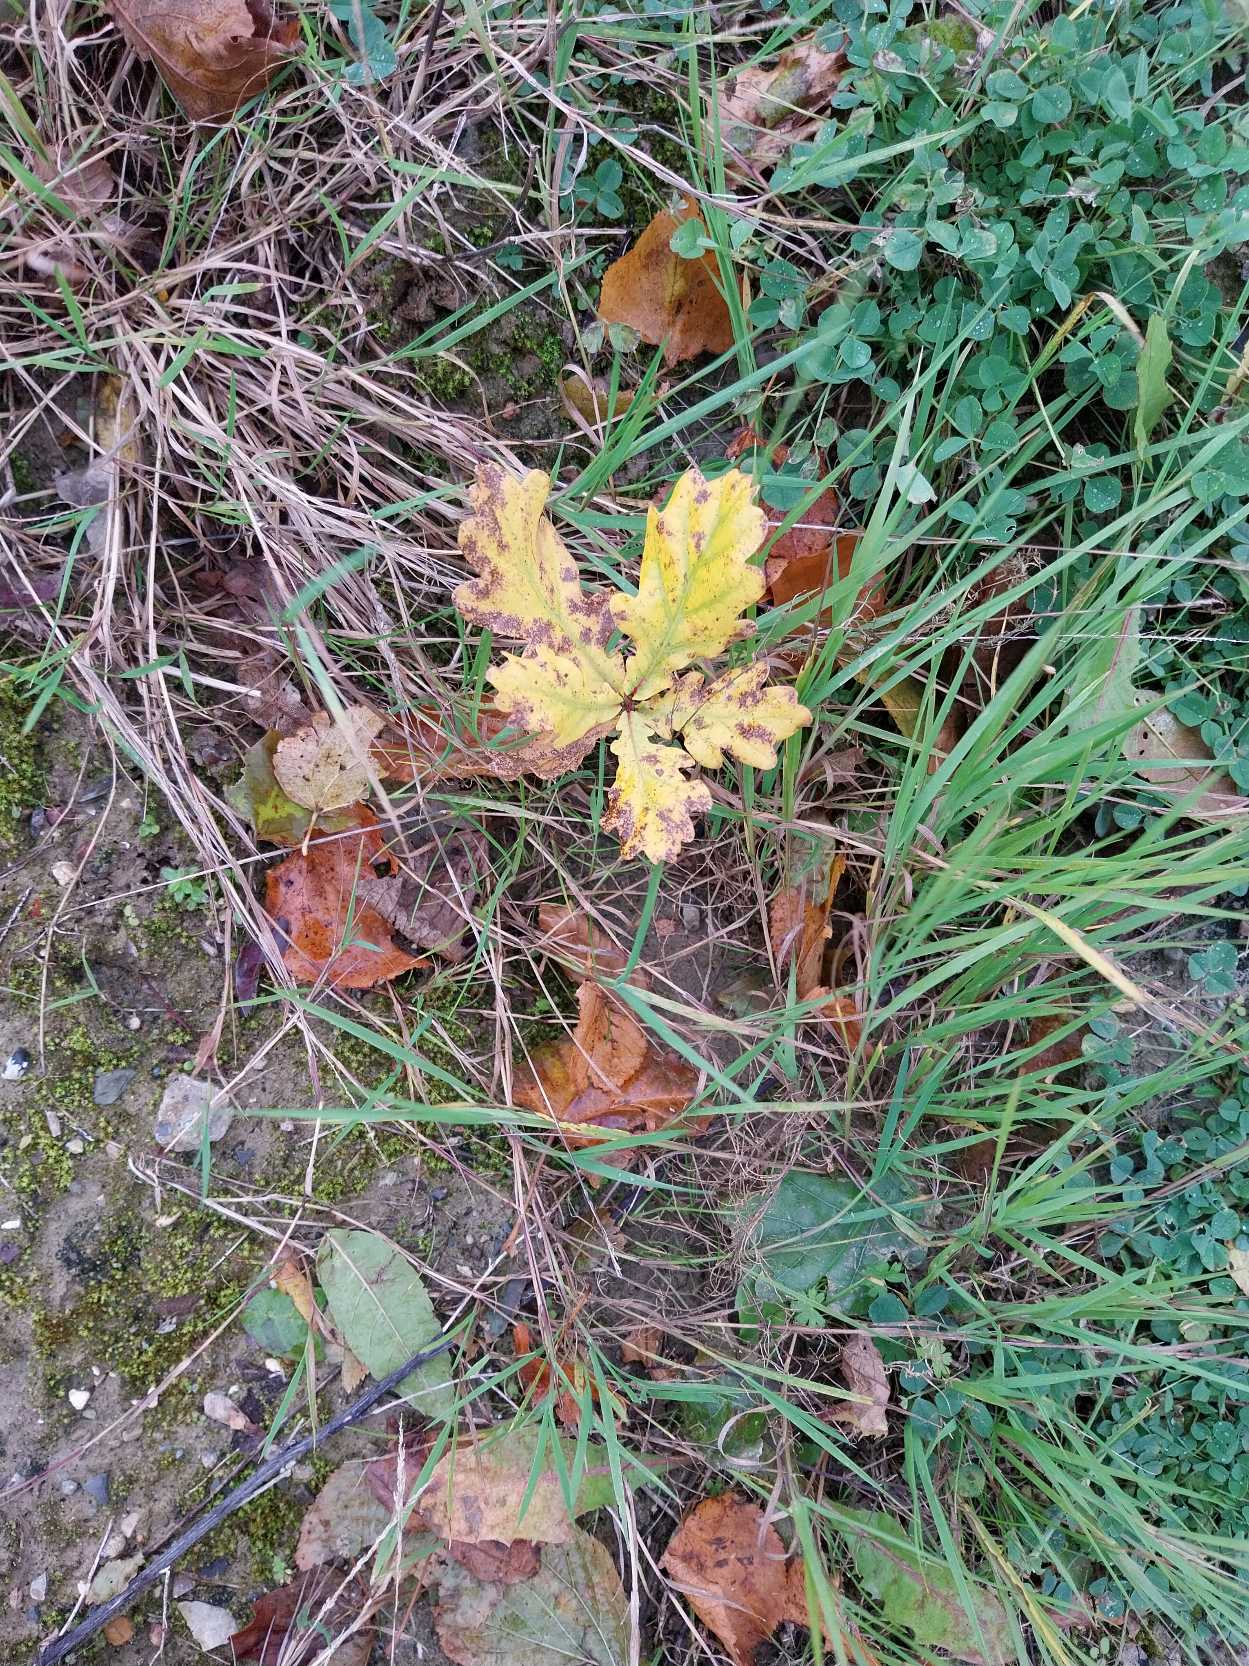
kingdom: Plantae
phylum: Tracheophyta
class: Magnoliopsida
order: Fagales
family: Fagaceae
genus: Quercus
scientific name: Quercus robur
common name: Stilk-eg/almindelig eg
